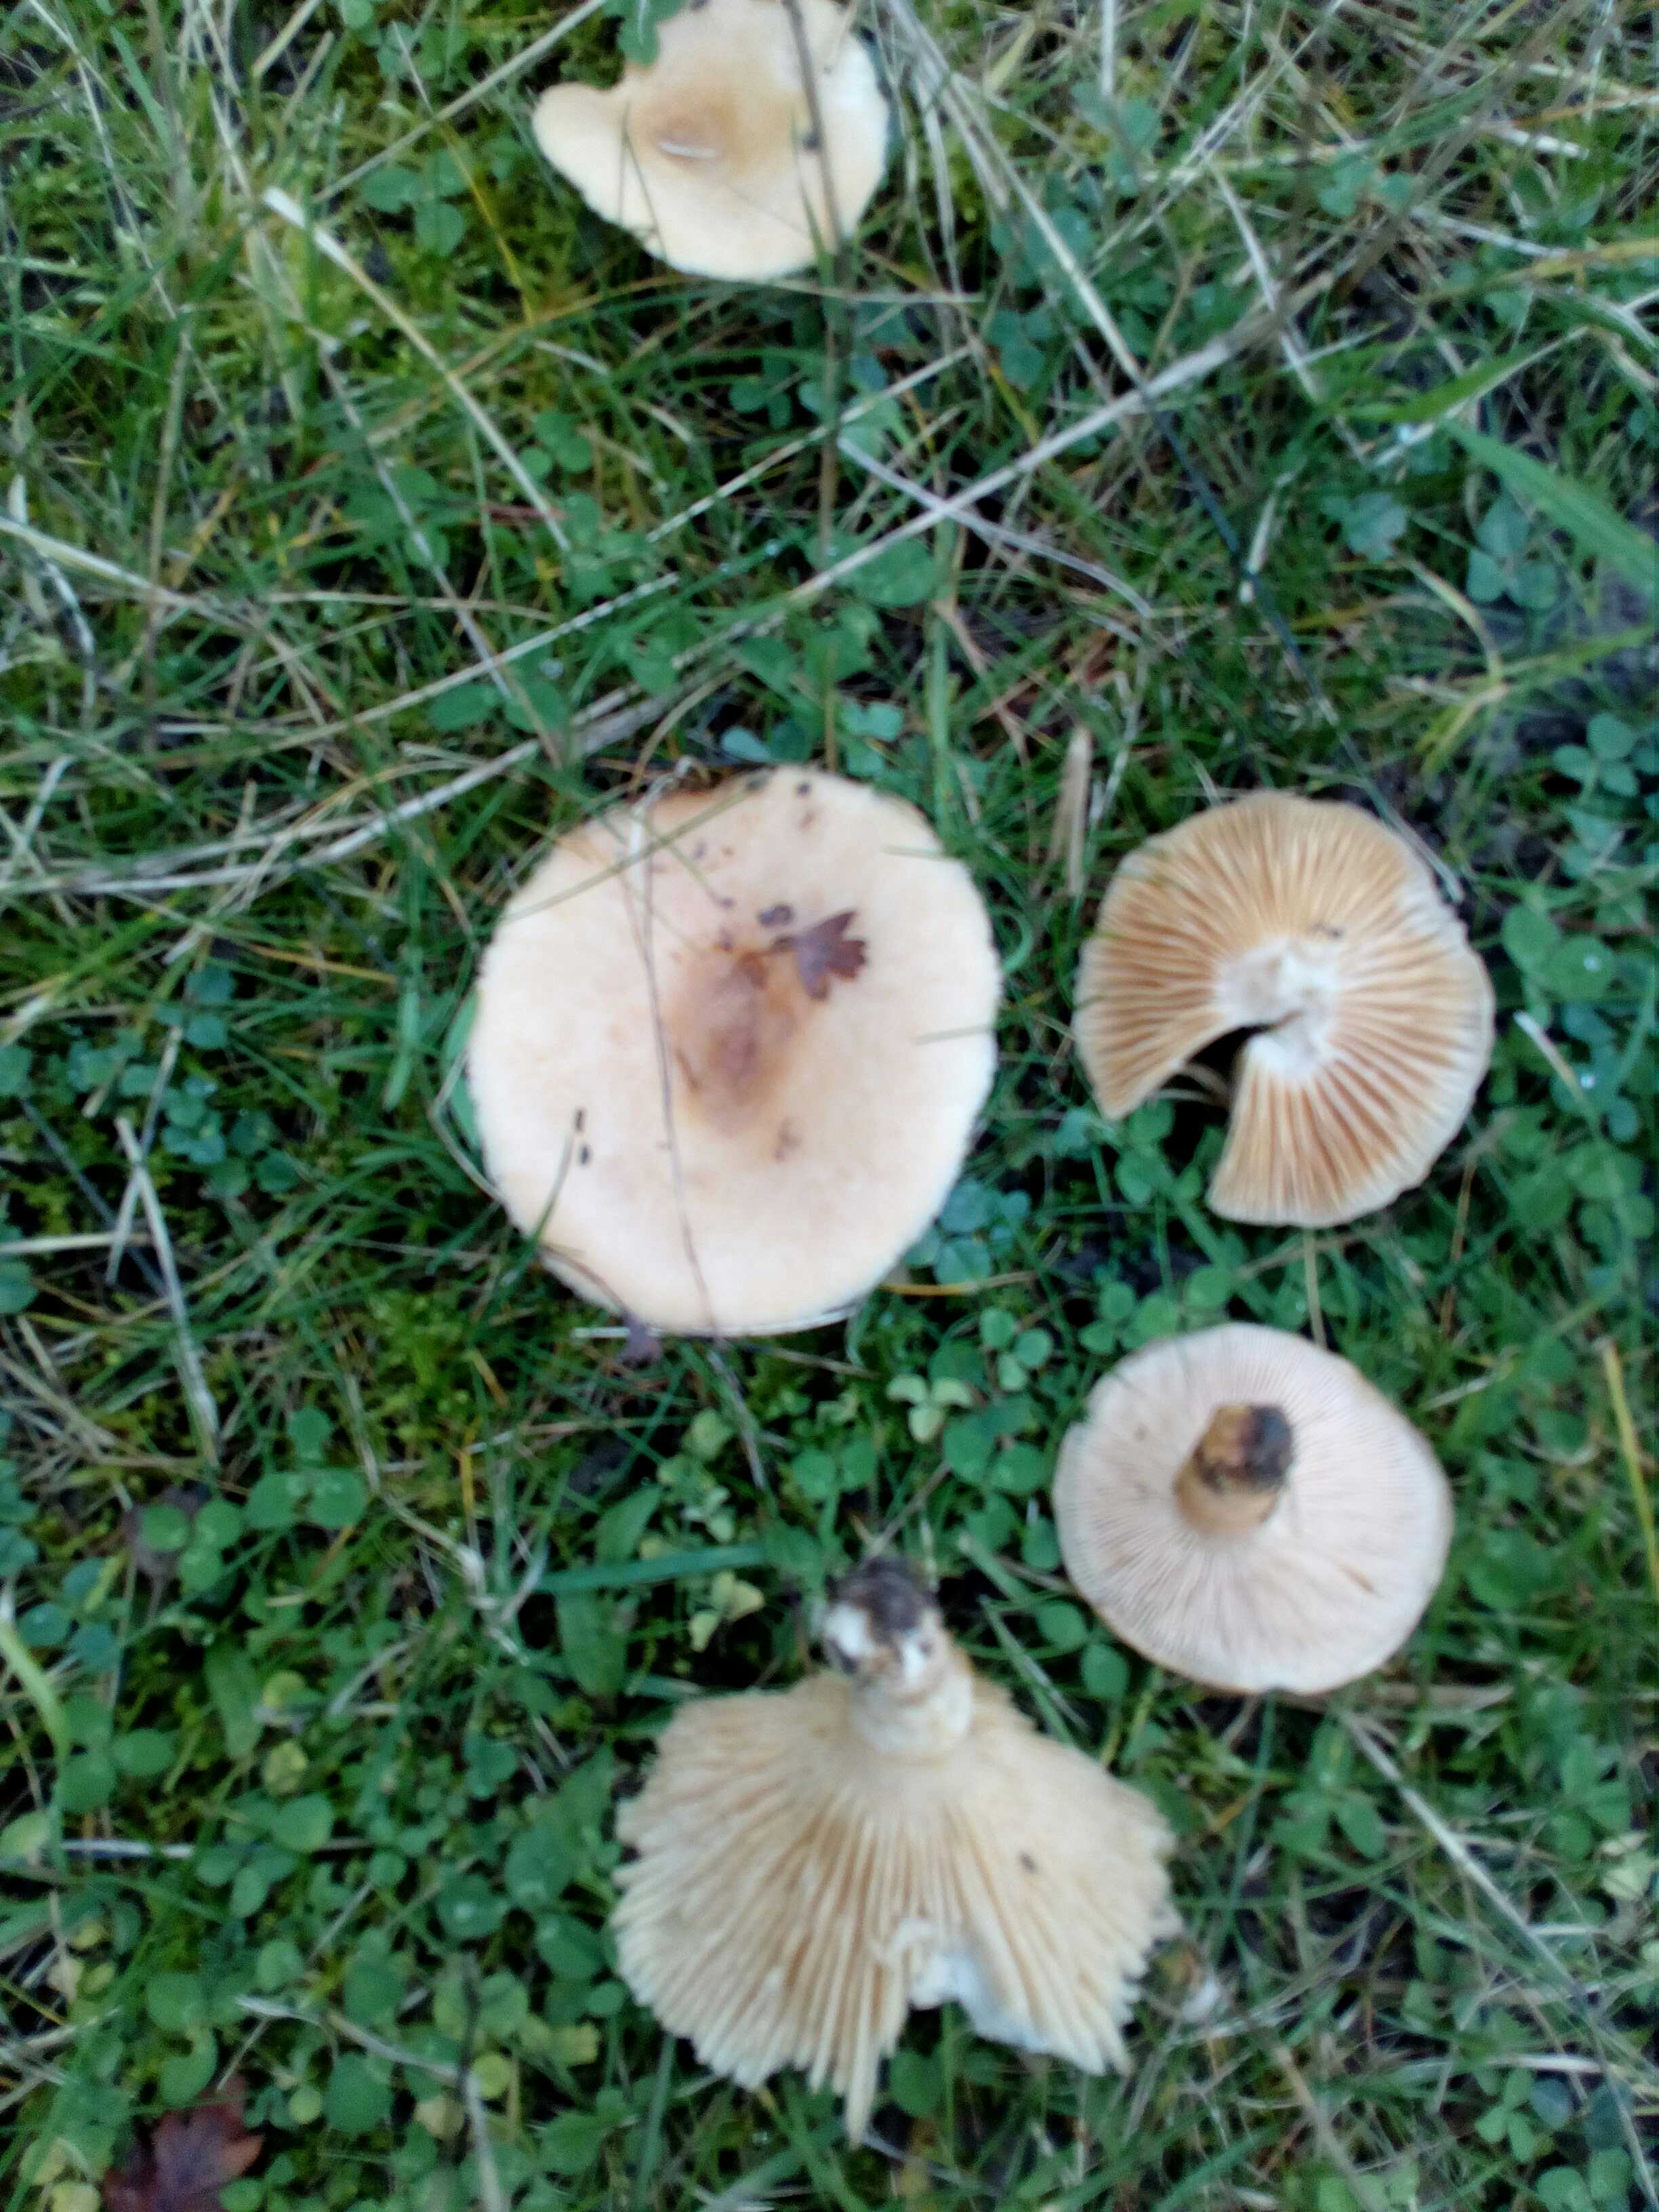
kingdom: Fungi
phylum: Basidiomycota
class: Agaricomycetes
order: Russulales
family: Russulaceae
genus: Lactarius
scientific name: Lactarius pubescens
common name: dunet mælkehat
